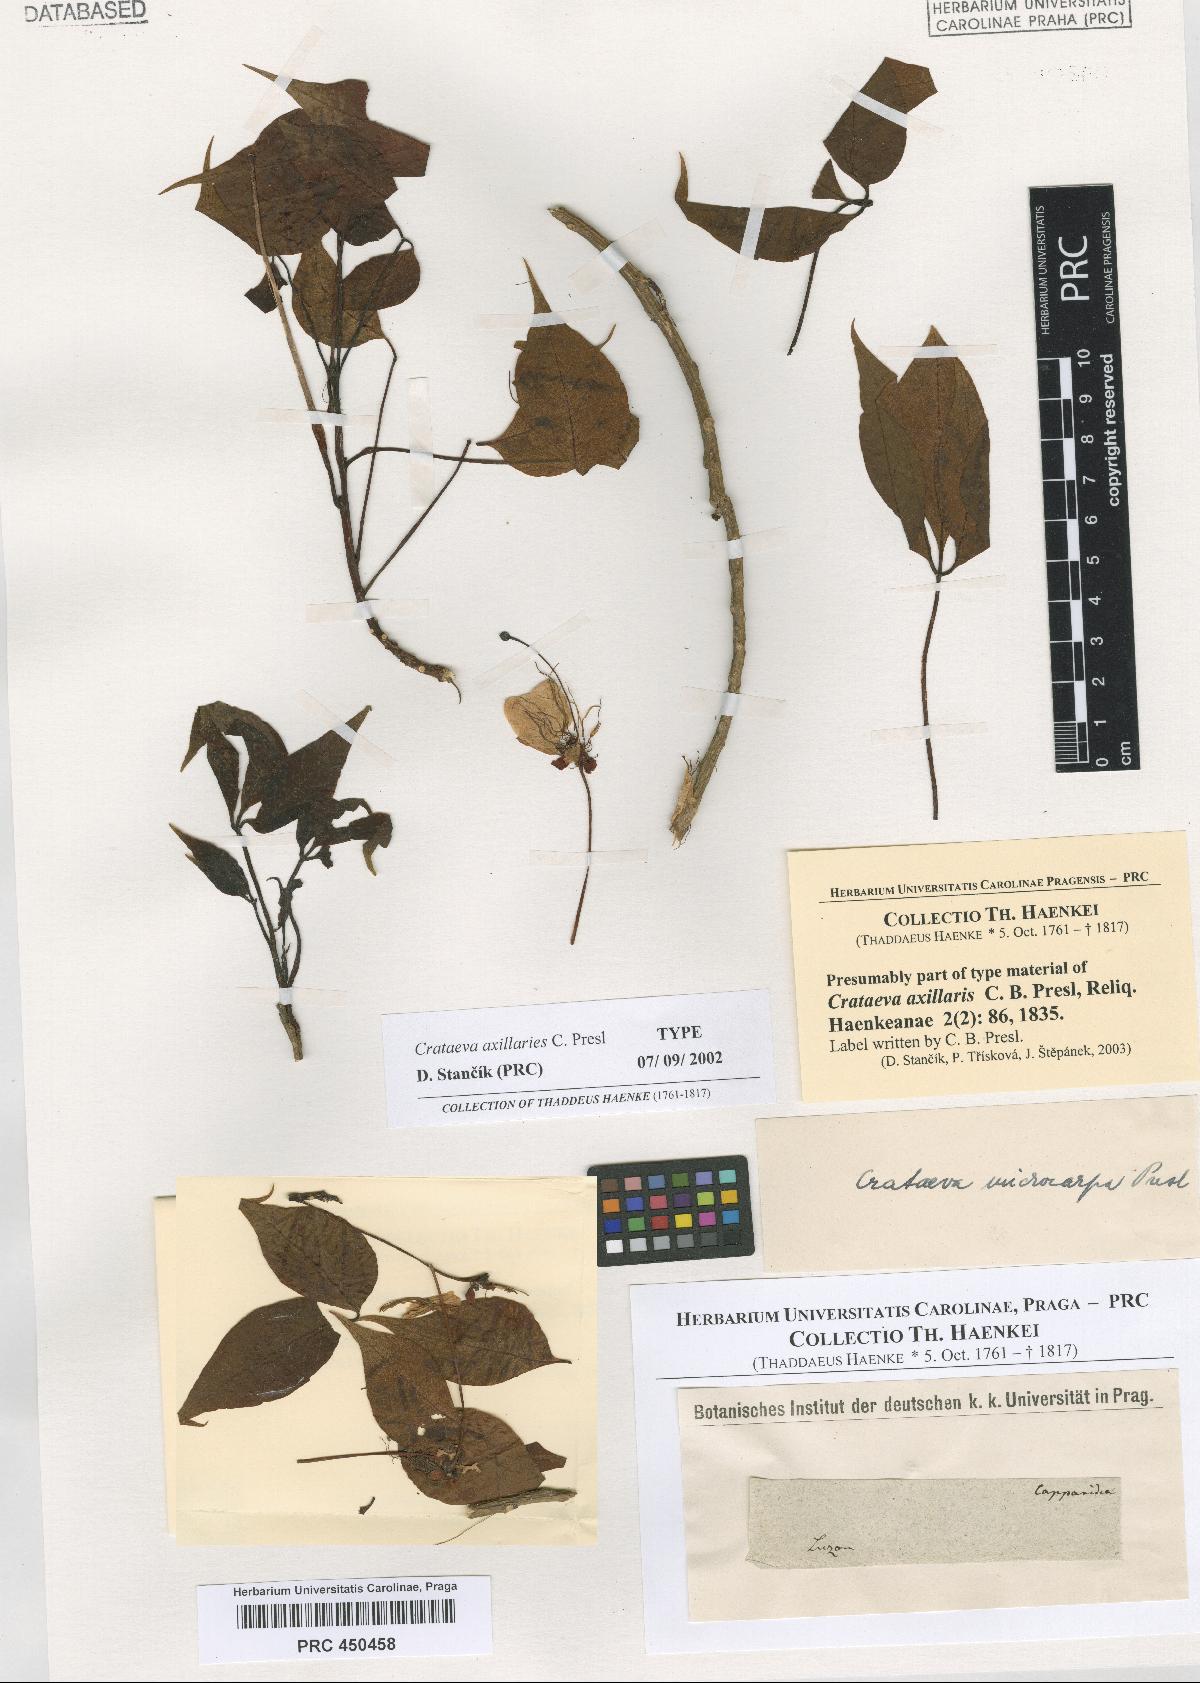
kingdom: Plantae
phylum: Tracheophyta
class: Magnoliopsida
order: Brassicales
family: Capparaceae
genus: Crateva
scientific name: Crateva religiosa
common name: March dalur
